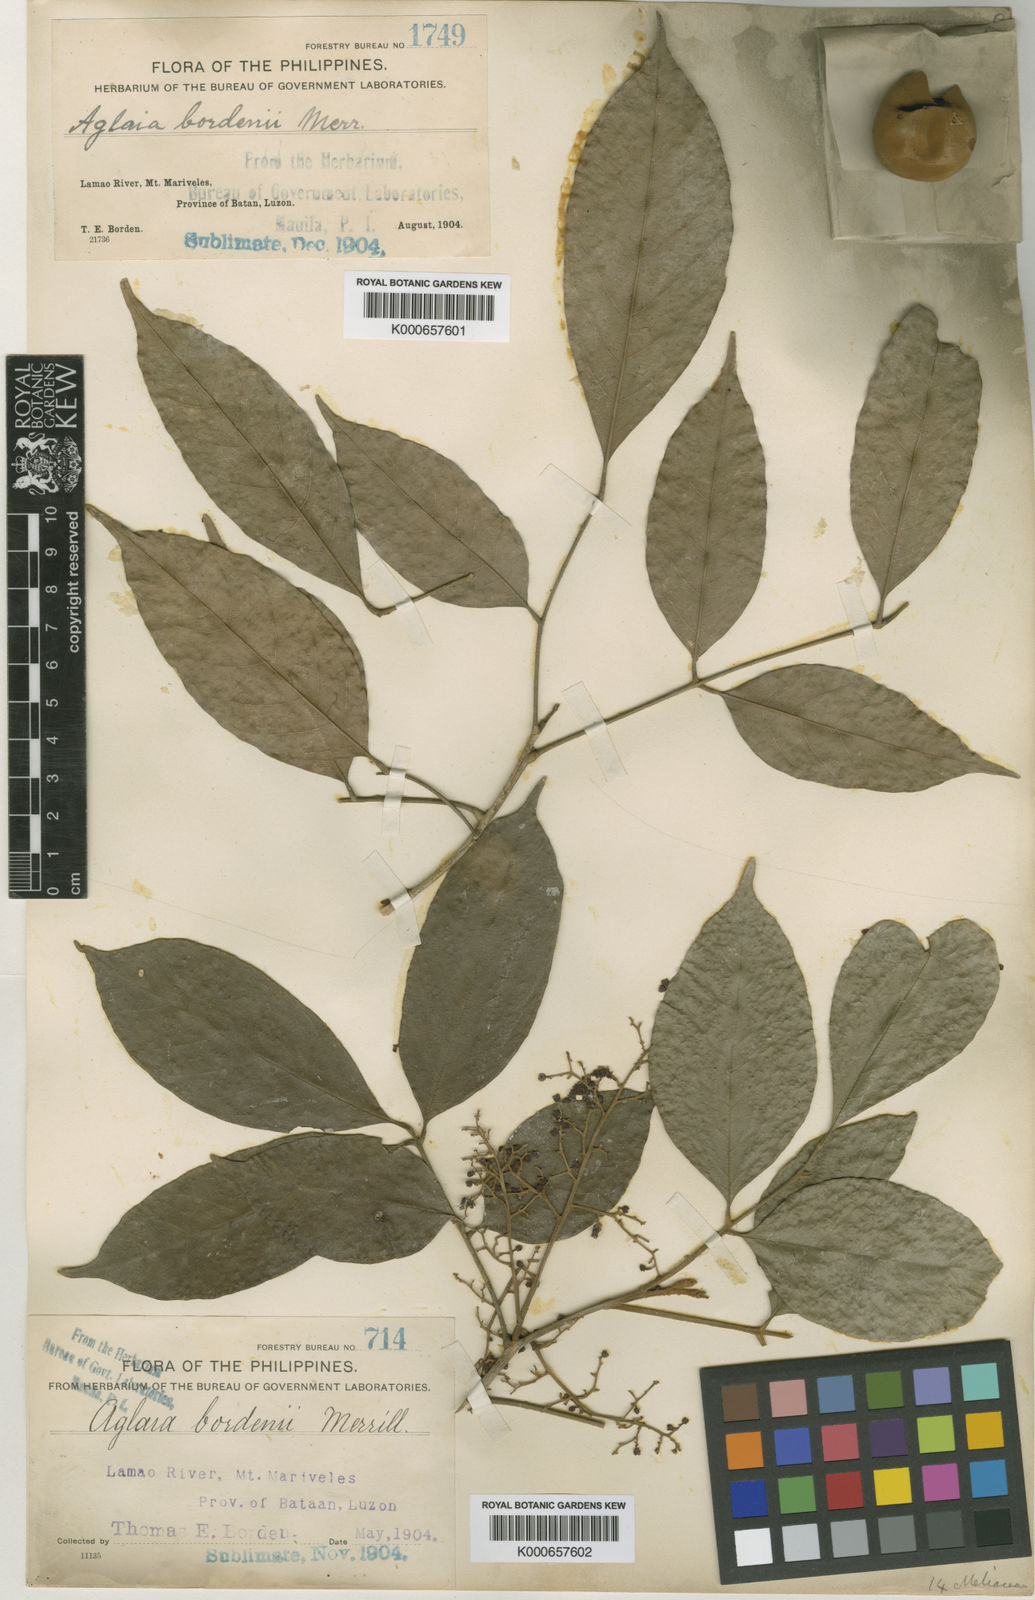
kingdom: Plantae
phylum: Tracheophyta
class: Magnoliopsida
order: Sapindales
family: Meliaceae
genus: Aglaia
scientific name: Aglaia oligophylla
